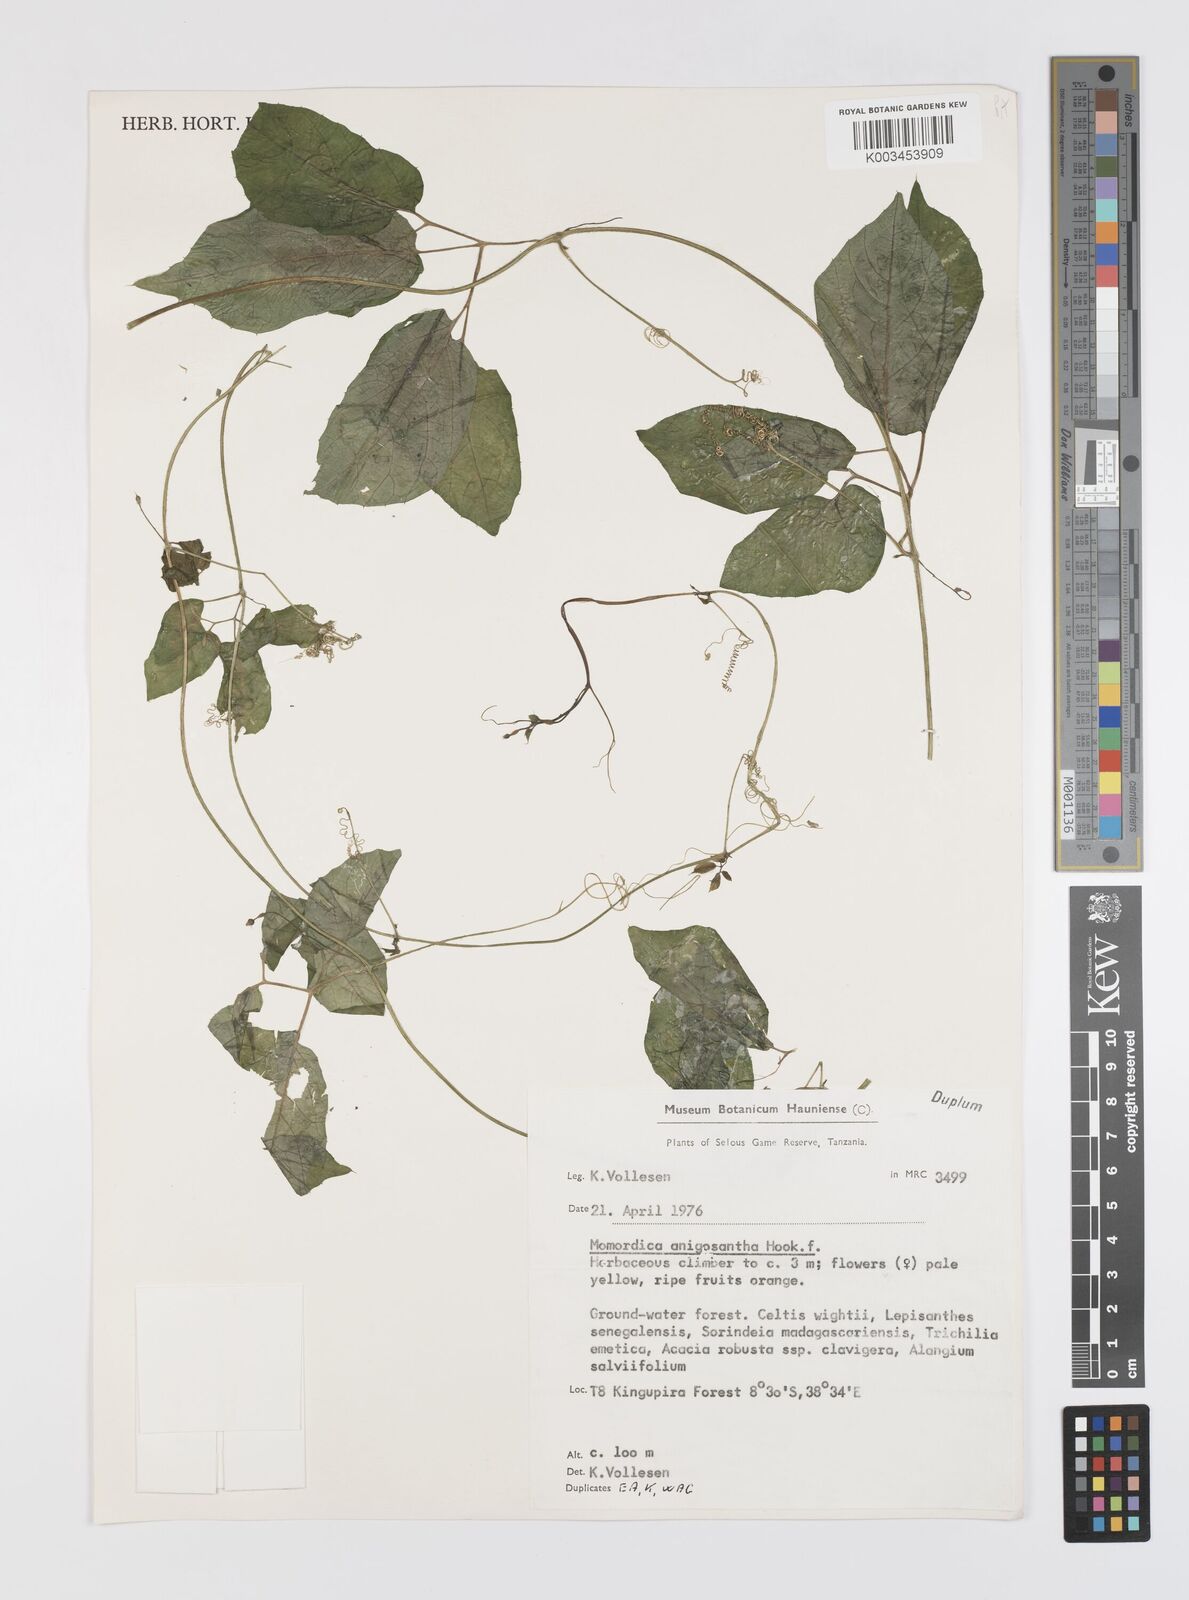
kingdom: Plantae
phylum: Tracheophyta
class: Magnoliopsida
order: Cucurbitales
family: Cucurbitaceae
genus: Momordica
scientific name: Momordica anigosantha
